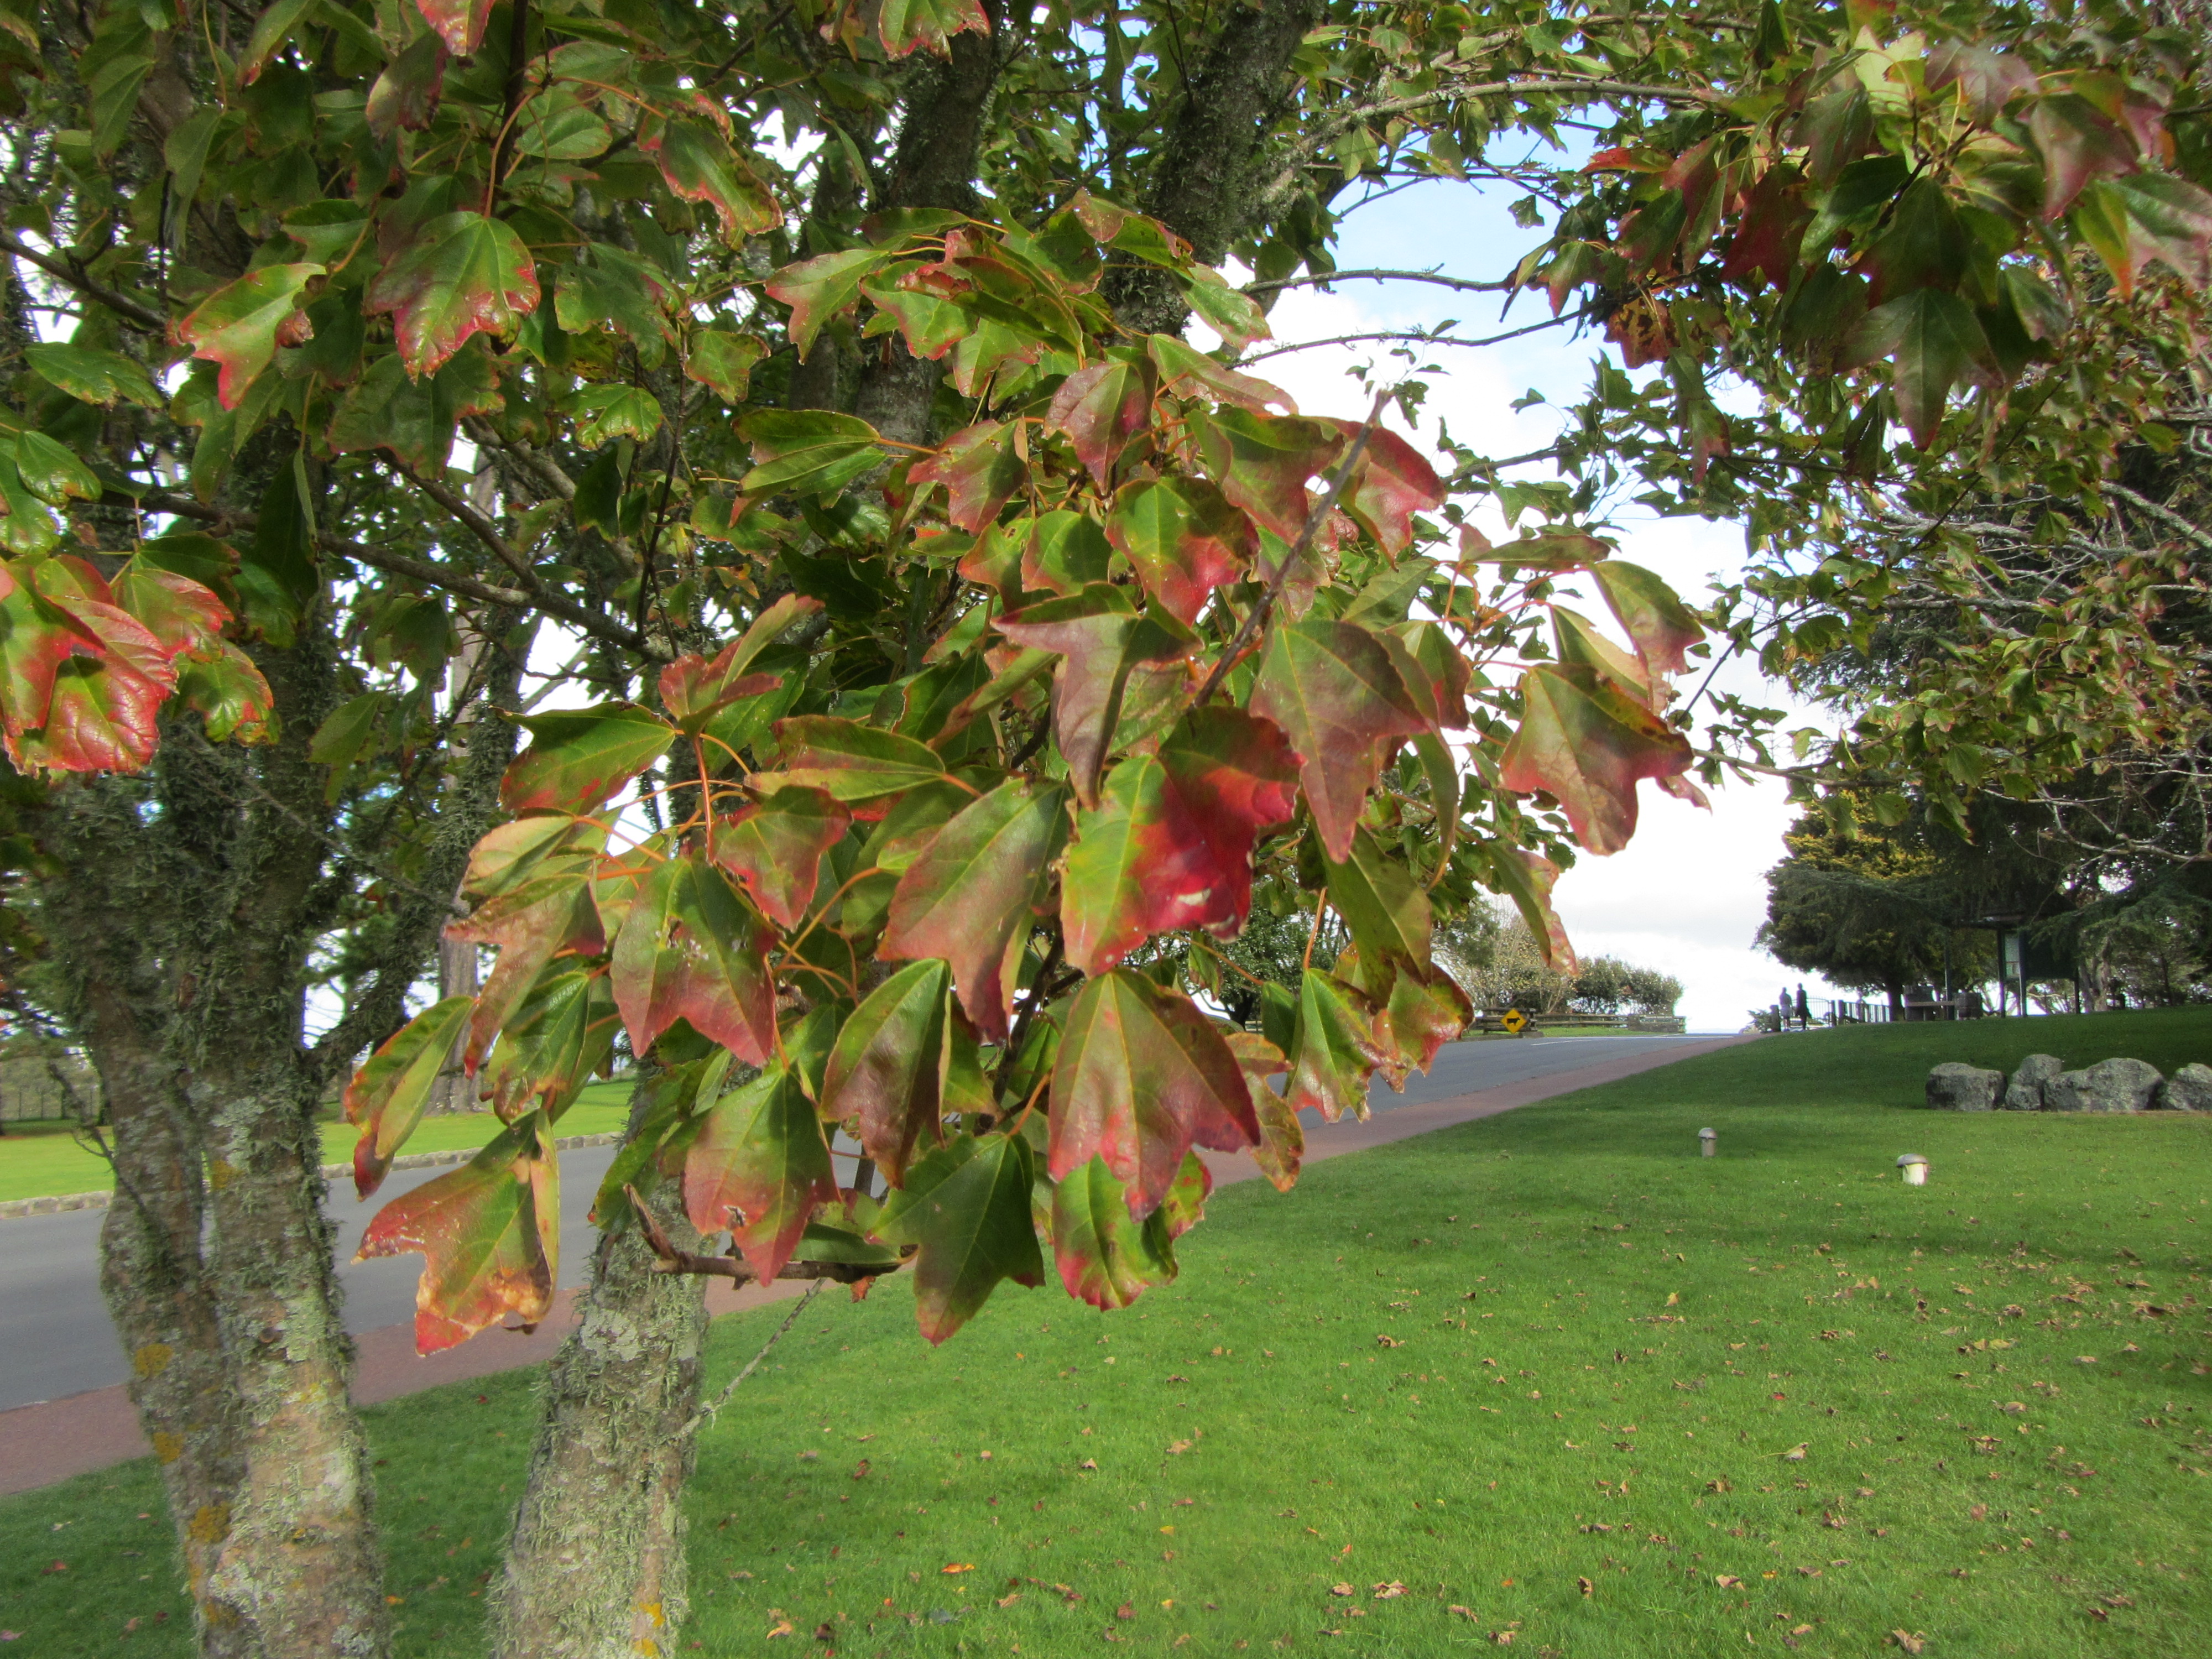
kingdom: Plantae
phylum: Tracheophyta
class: Magnoliopsida
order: Sapindales
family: Sapindaceae
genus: Acer
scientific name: Acer buergerianum
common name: Trident maple
